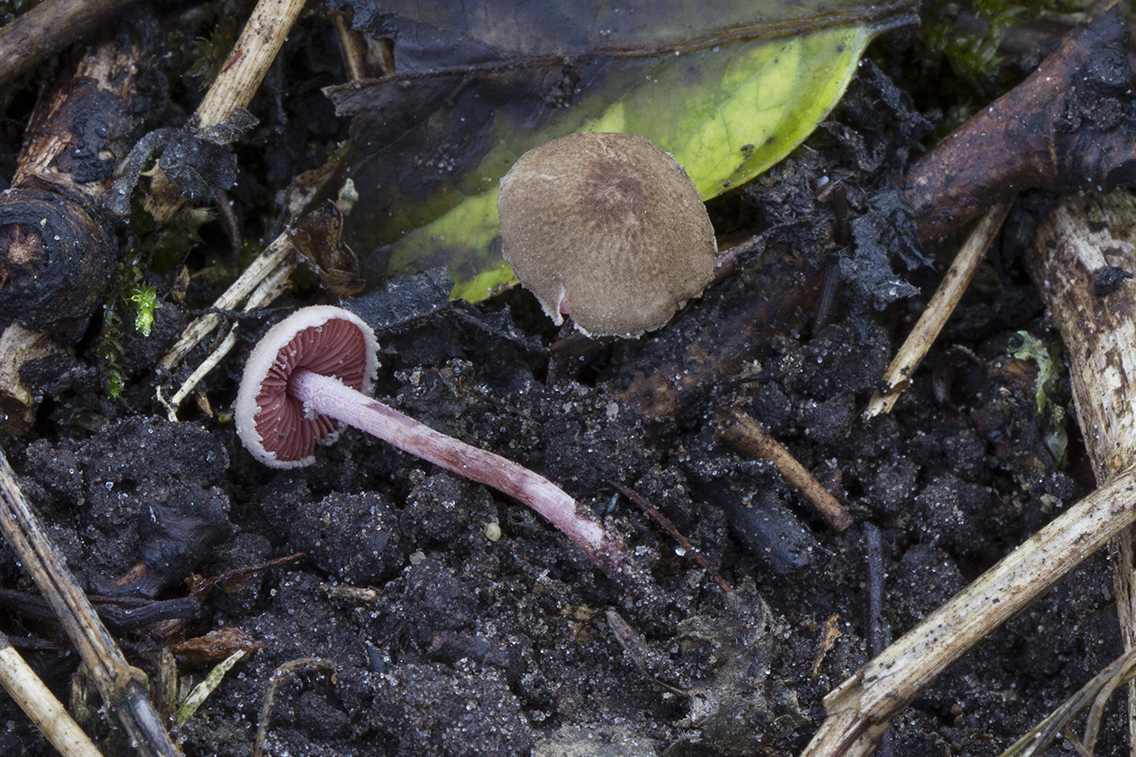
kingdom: Fungi
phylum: Basidiomycota
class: Agaricomycetes
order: Agaricales
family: Agaricaceae
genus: Melanophyllum
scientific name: Melanophyllum haematospermum
